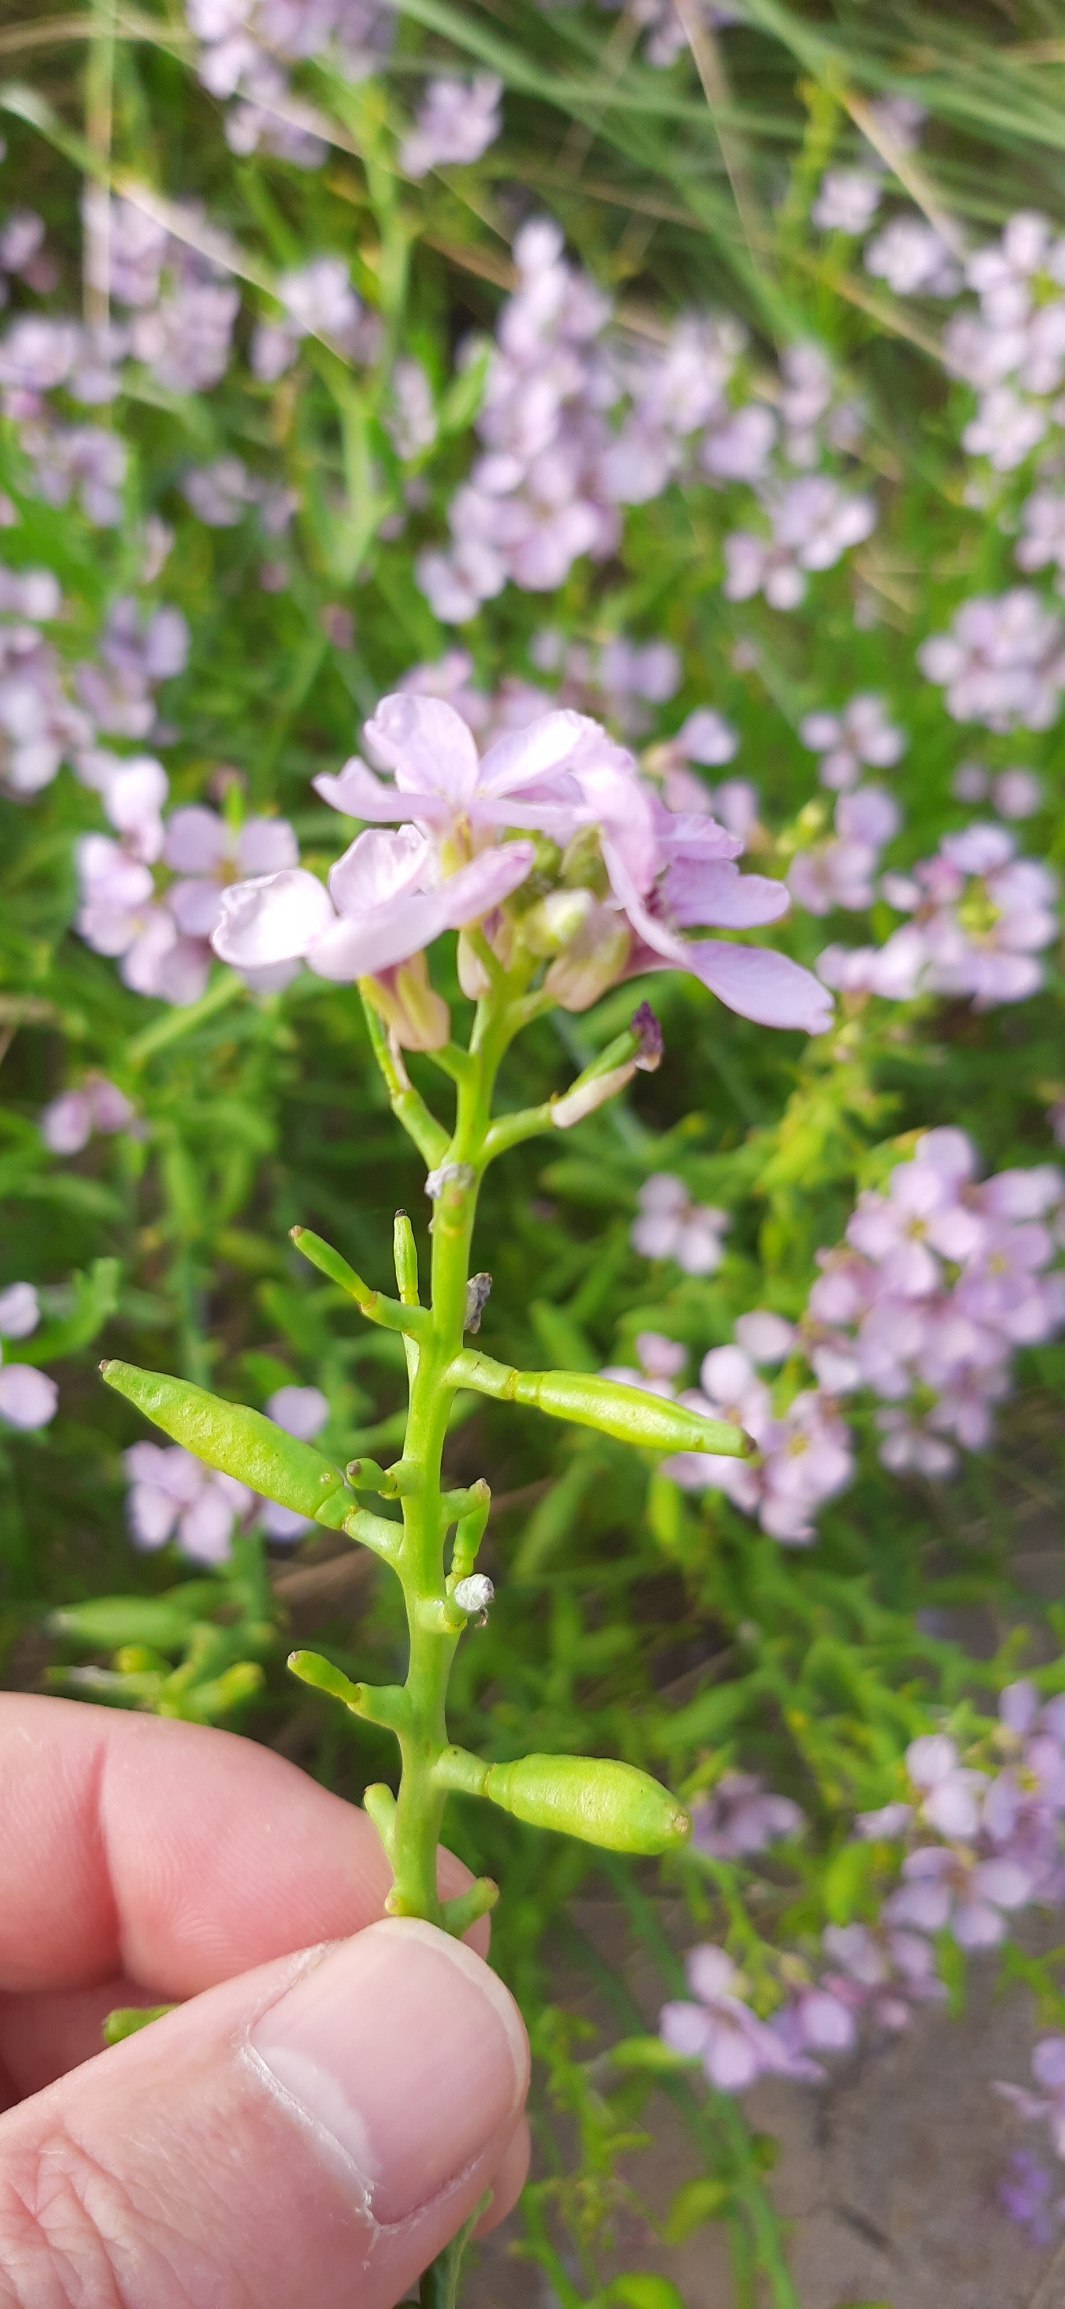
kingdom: Plantae
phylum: Tracheophyta
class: Magnoliopsida
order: Brassicales
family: Brassicaceae
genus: Cakile
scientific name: Cakile maritima
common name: Strandsennep
